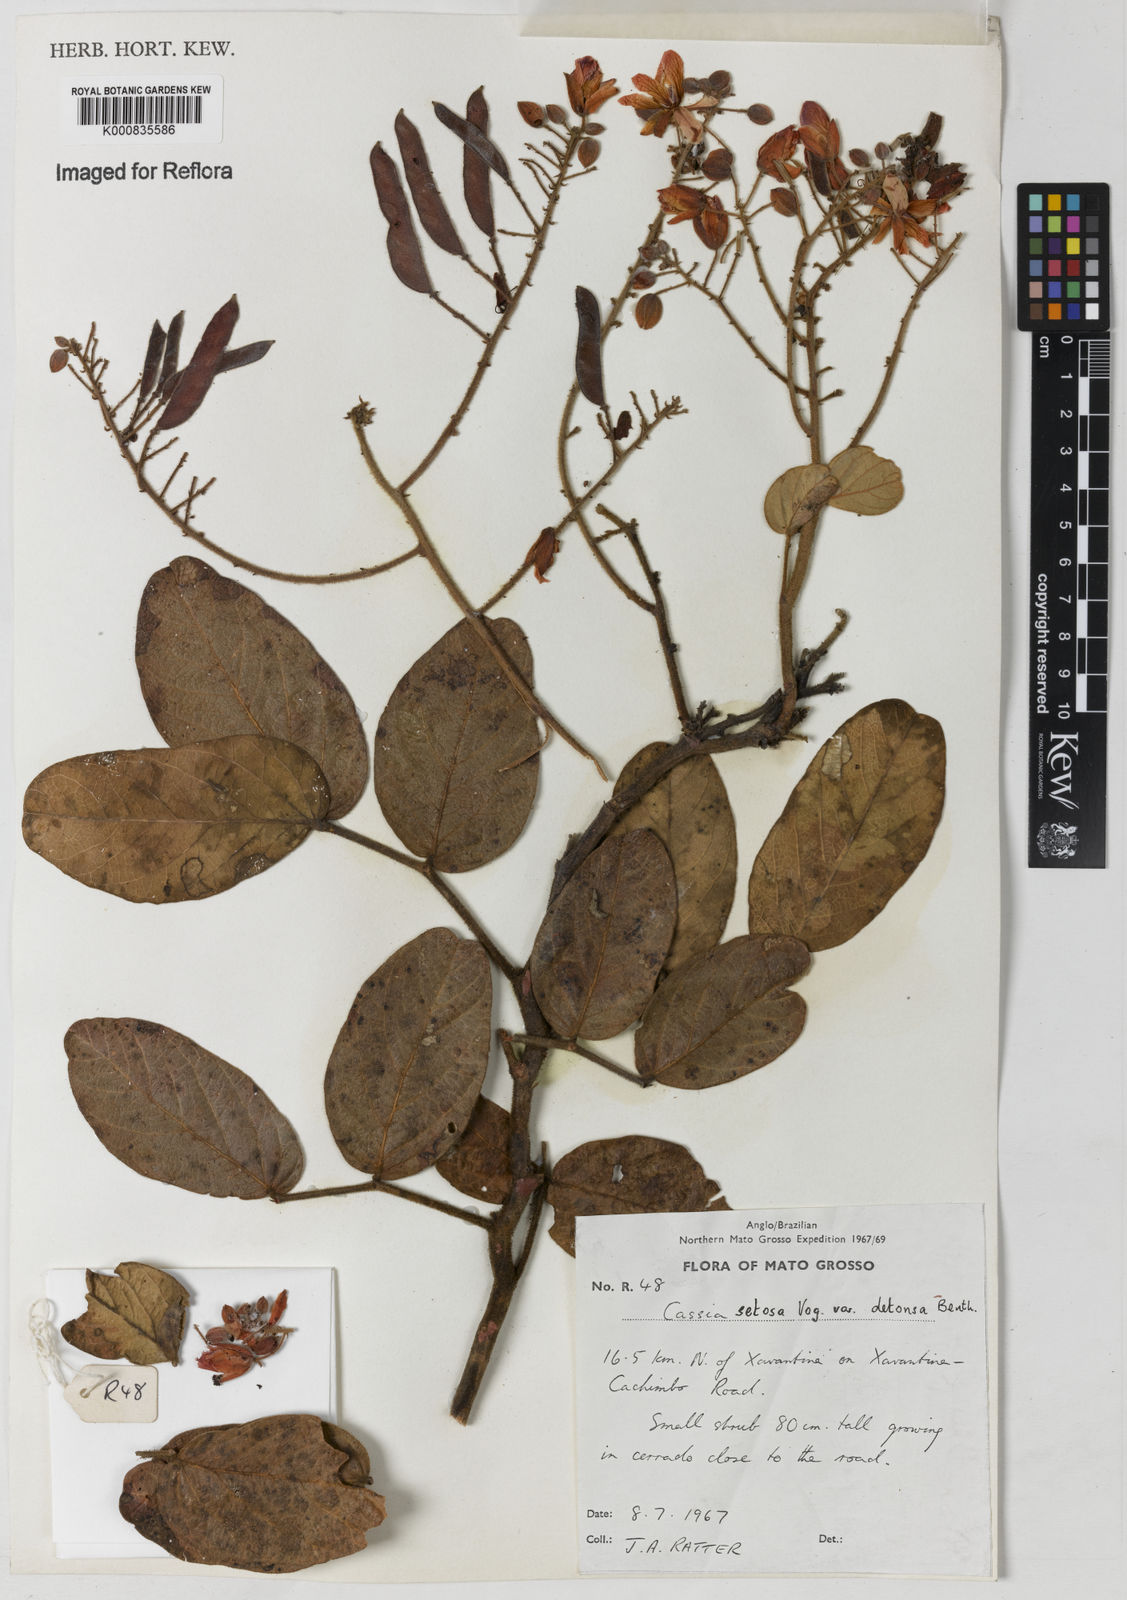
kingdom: Plantae
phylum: Tracheophyta
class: Magnoliopsida
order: Fabales
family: Fabaceae
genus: Chamaecrista
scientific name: Chamaecrista setosa
